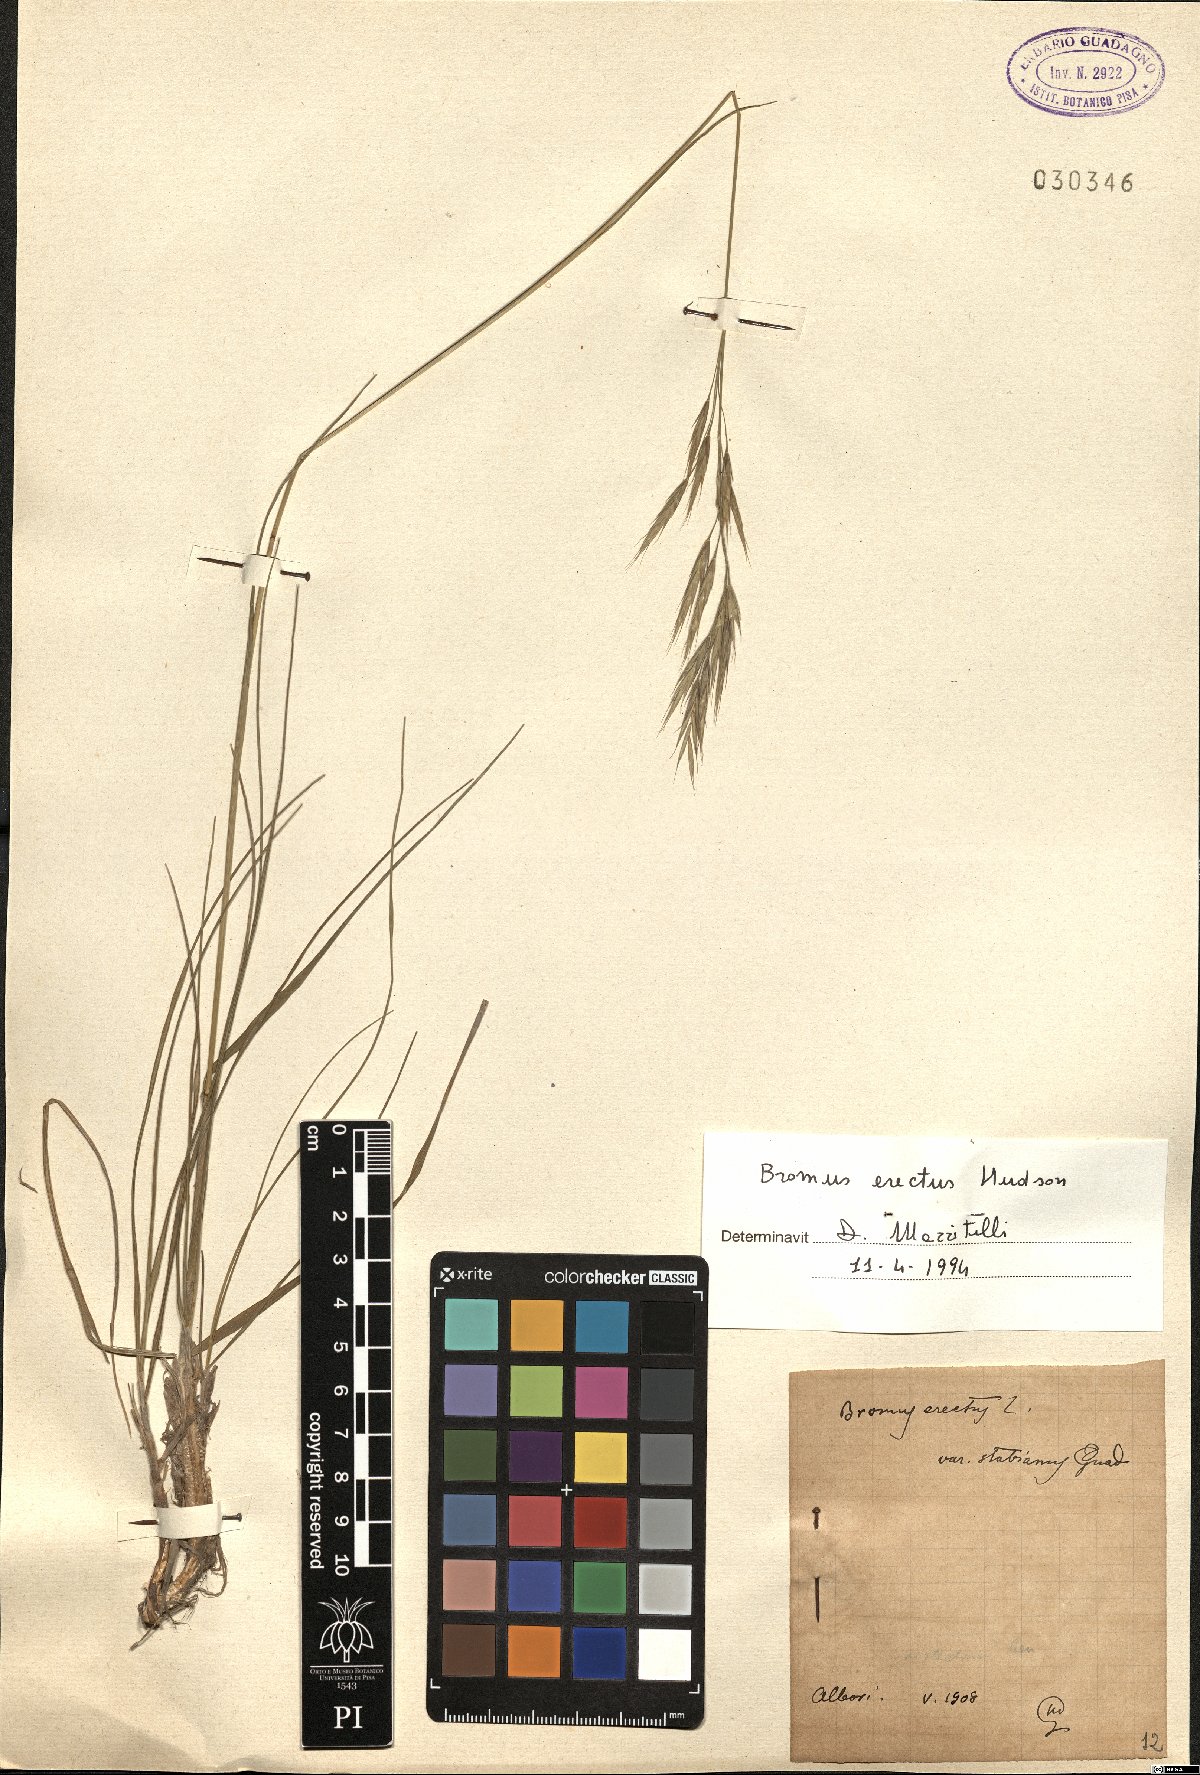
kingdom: Plantae
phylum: Tracheophyta
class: Liliopsida
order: Poales
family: Poaceae
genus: Bromus
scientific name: Bromus erectus
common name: Erect brome
